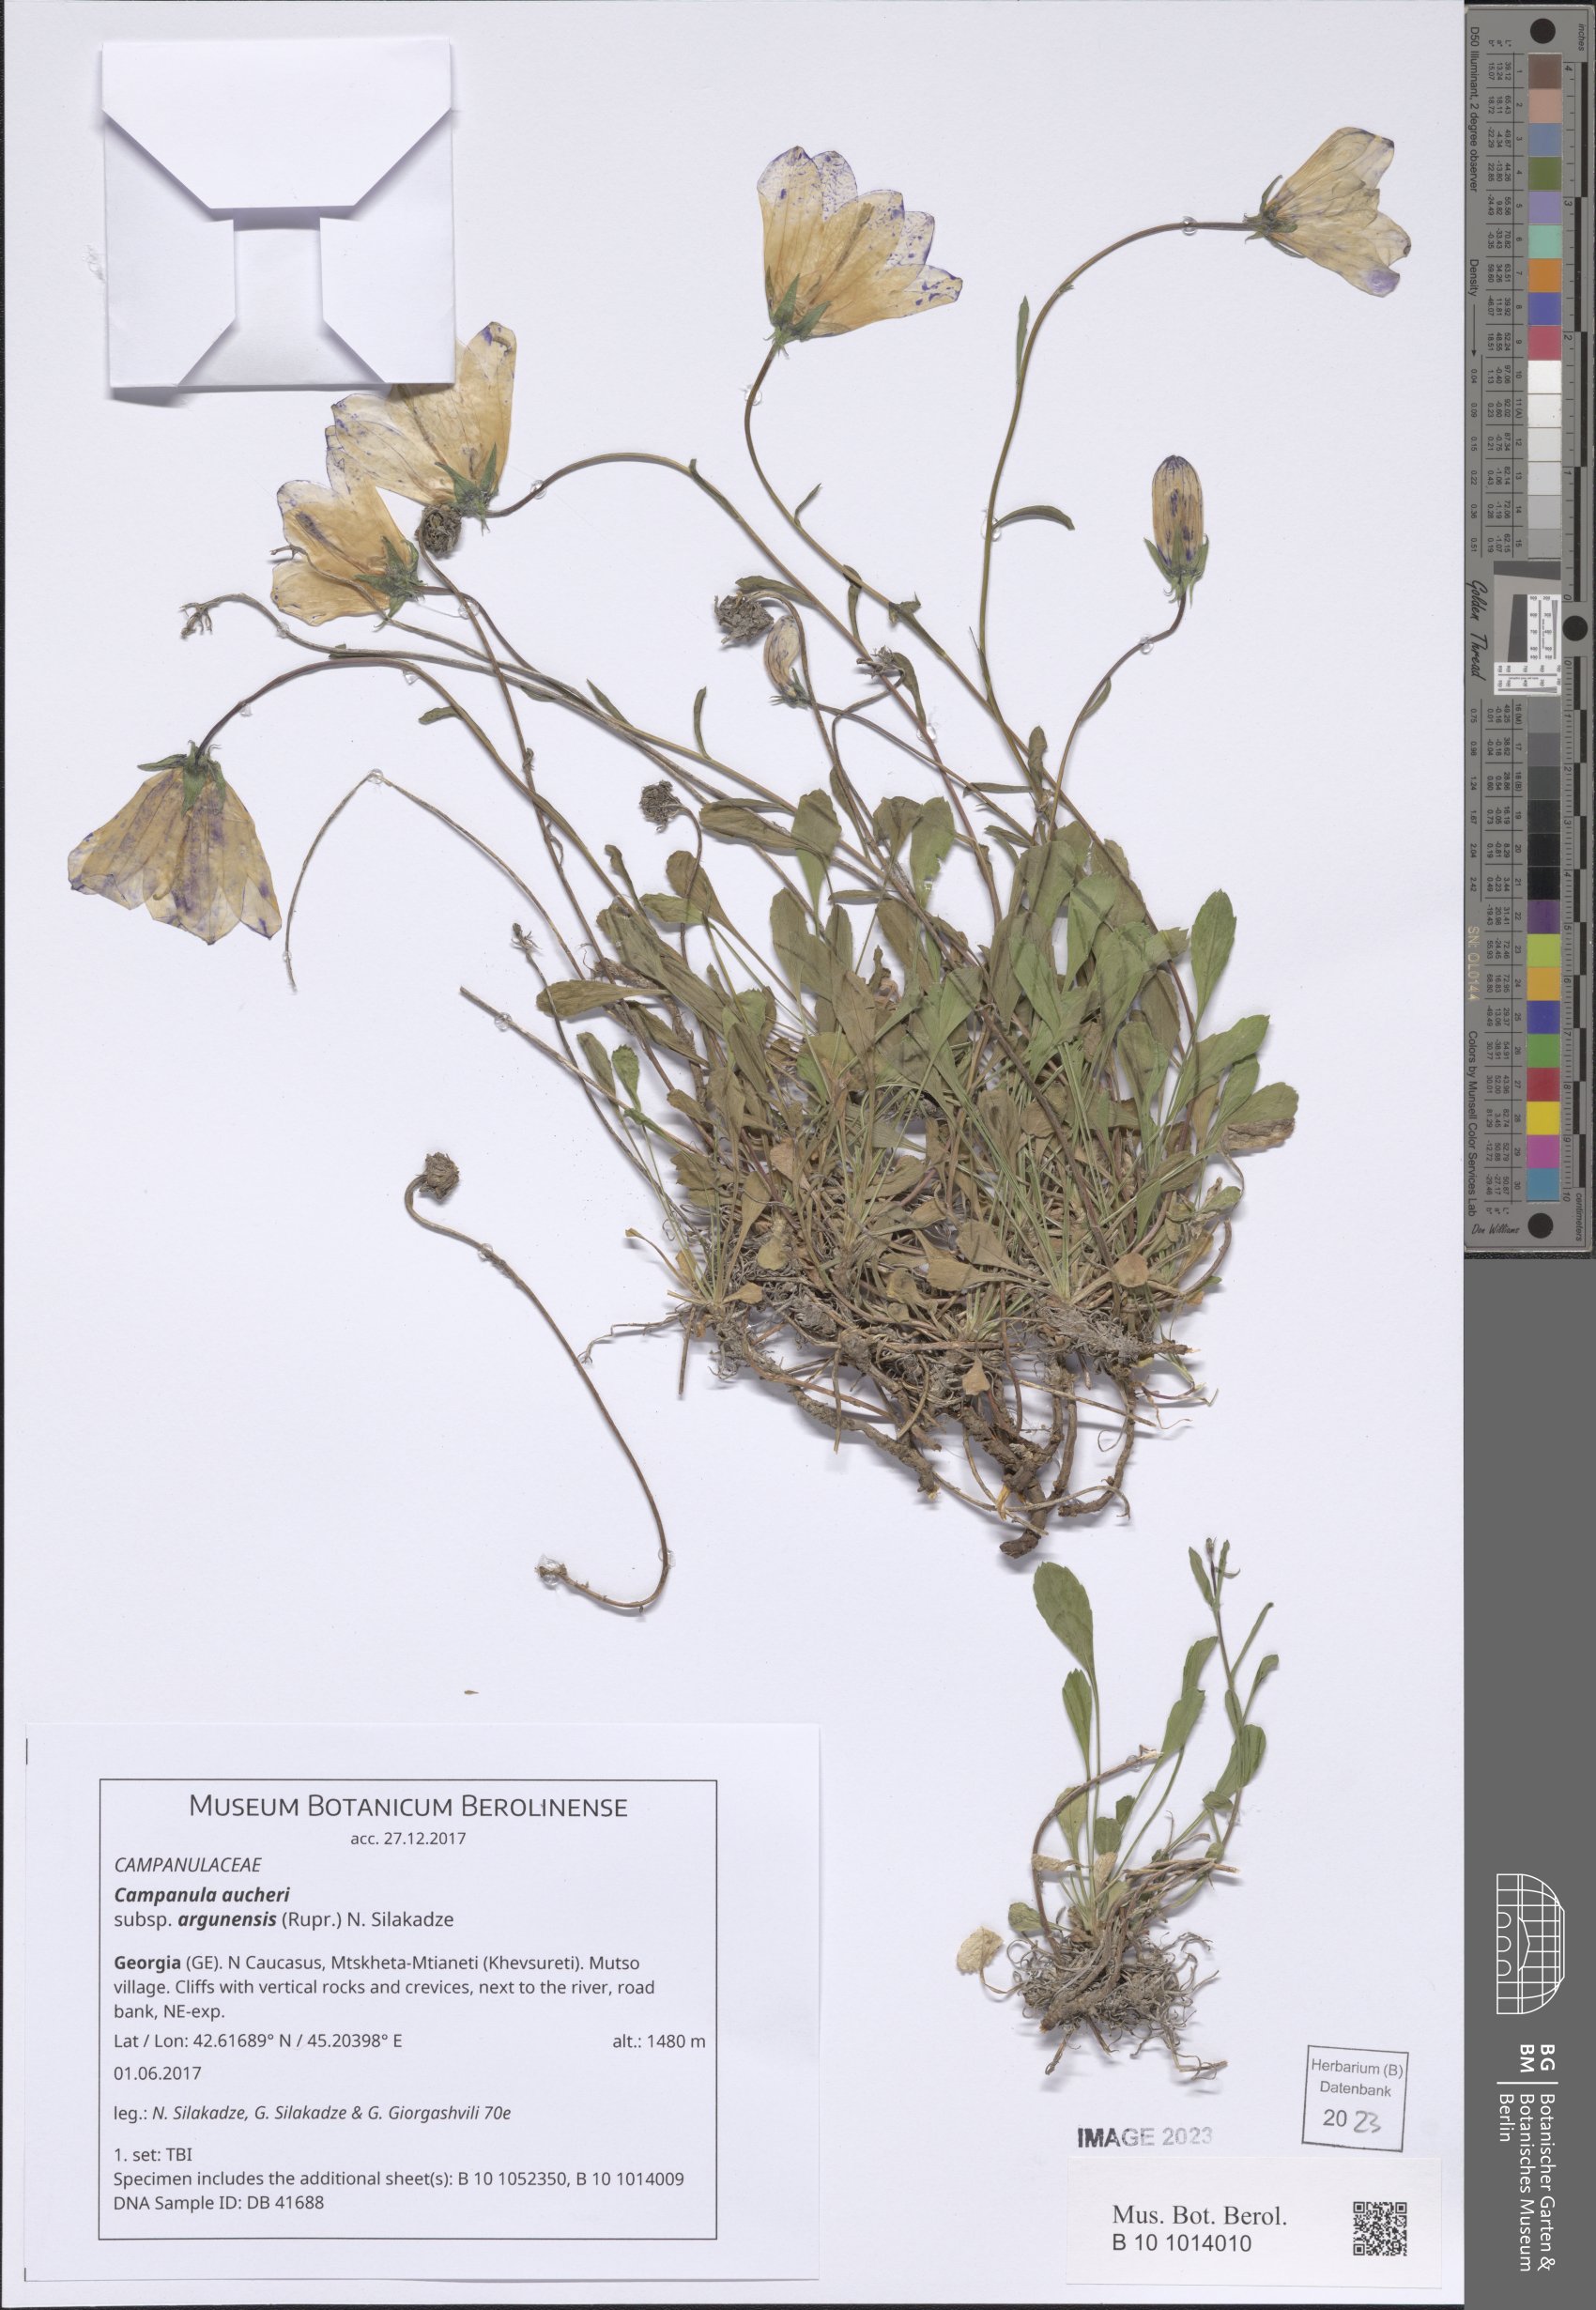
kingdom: Plantae
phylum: Tracheophyta
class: Magnoliopsida
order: Asterales
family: Campanulaceae
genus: Campanula
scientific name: Campanula saxifraga
